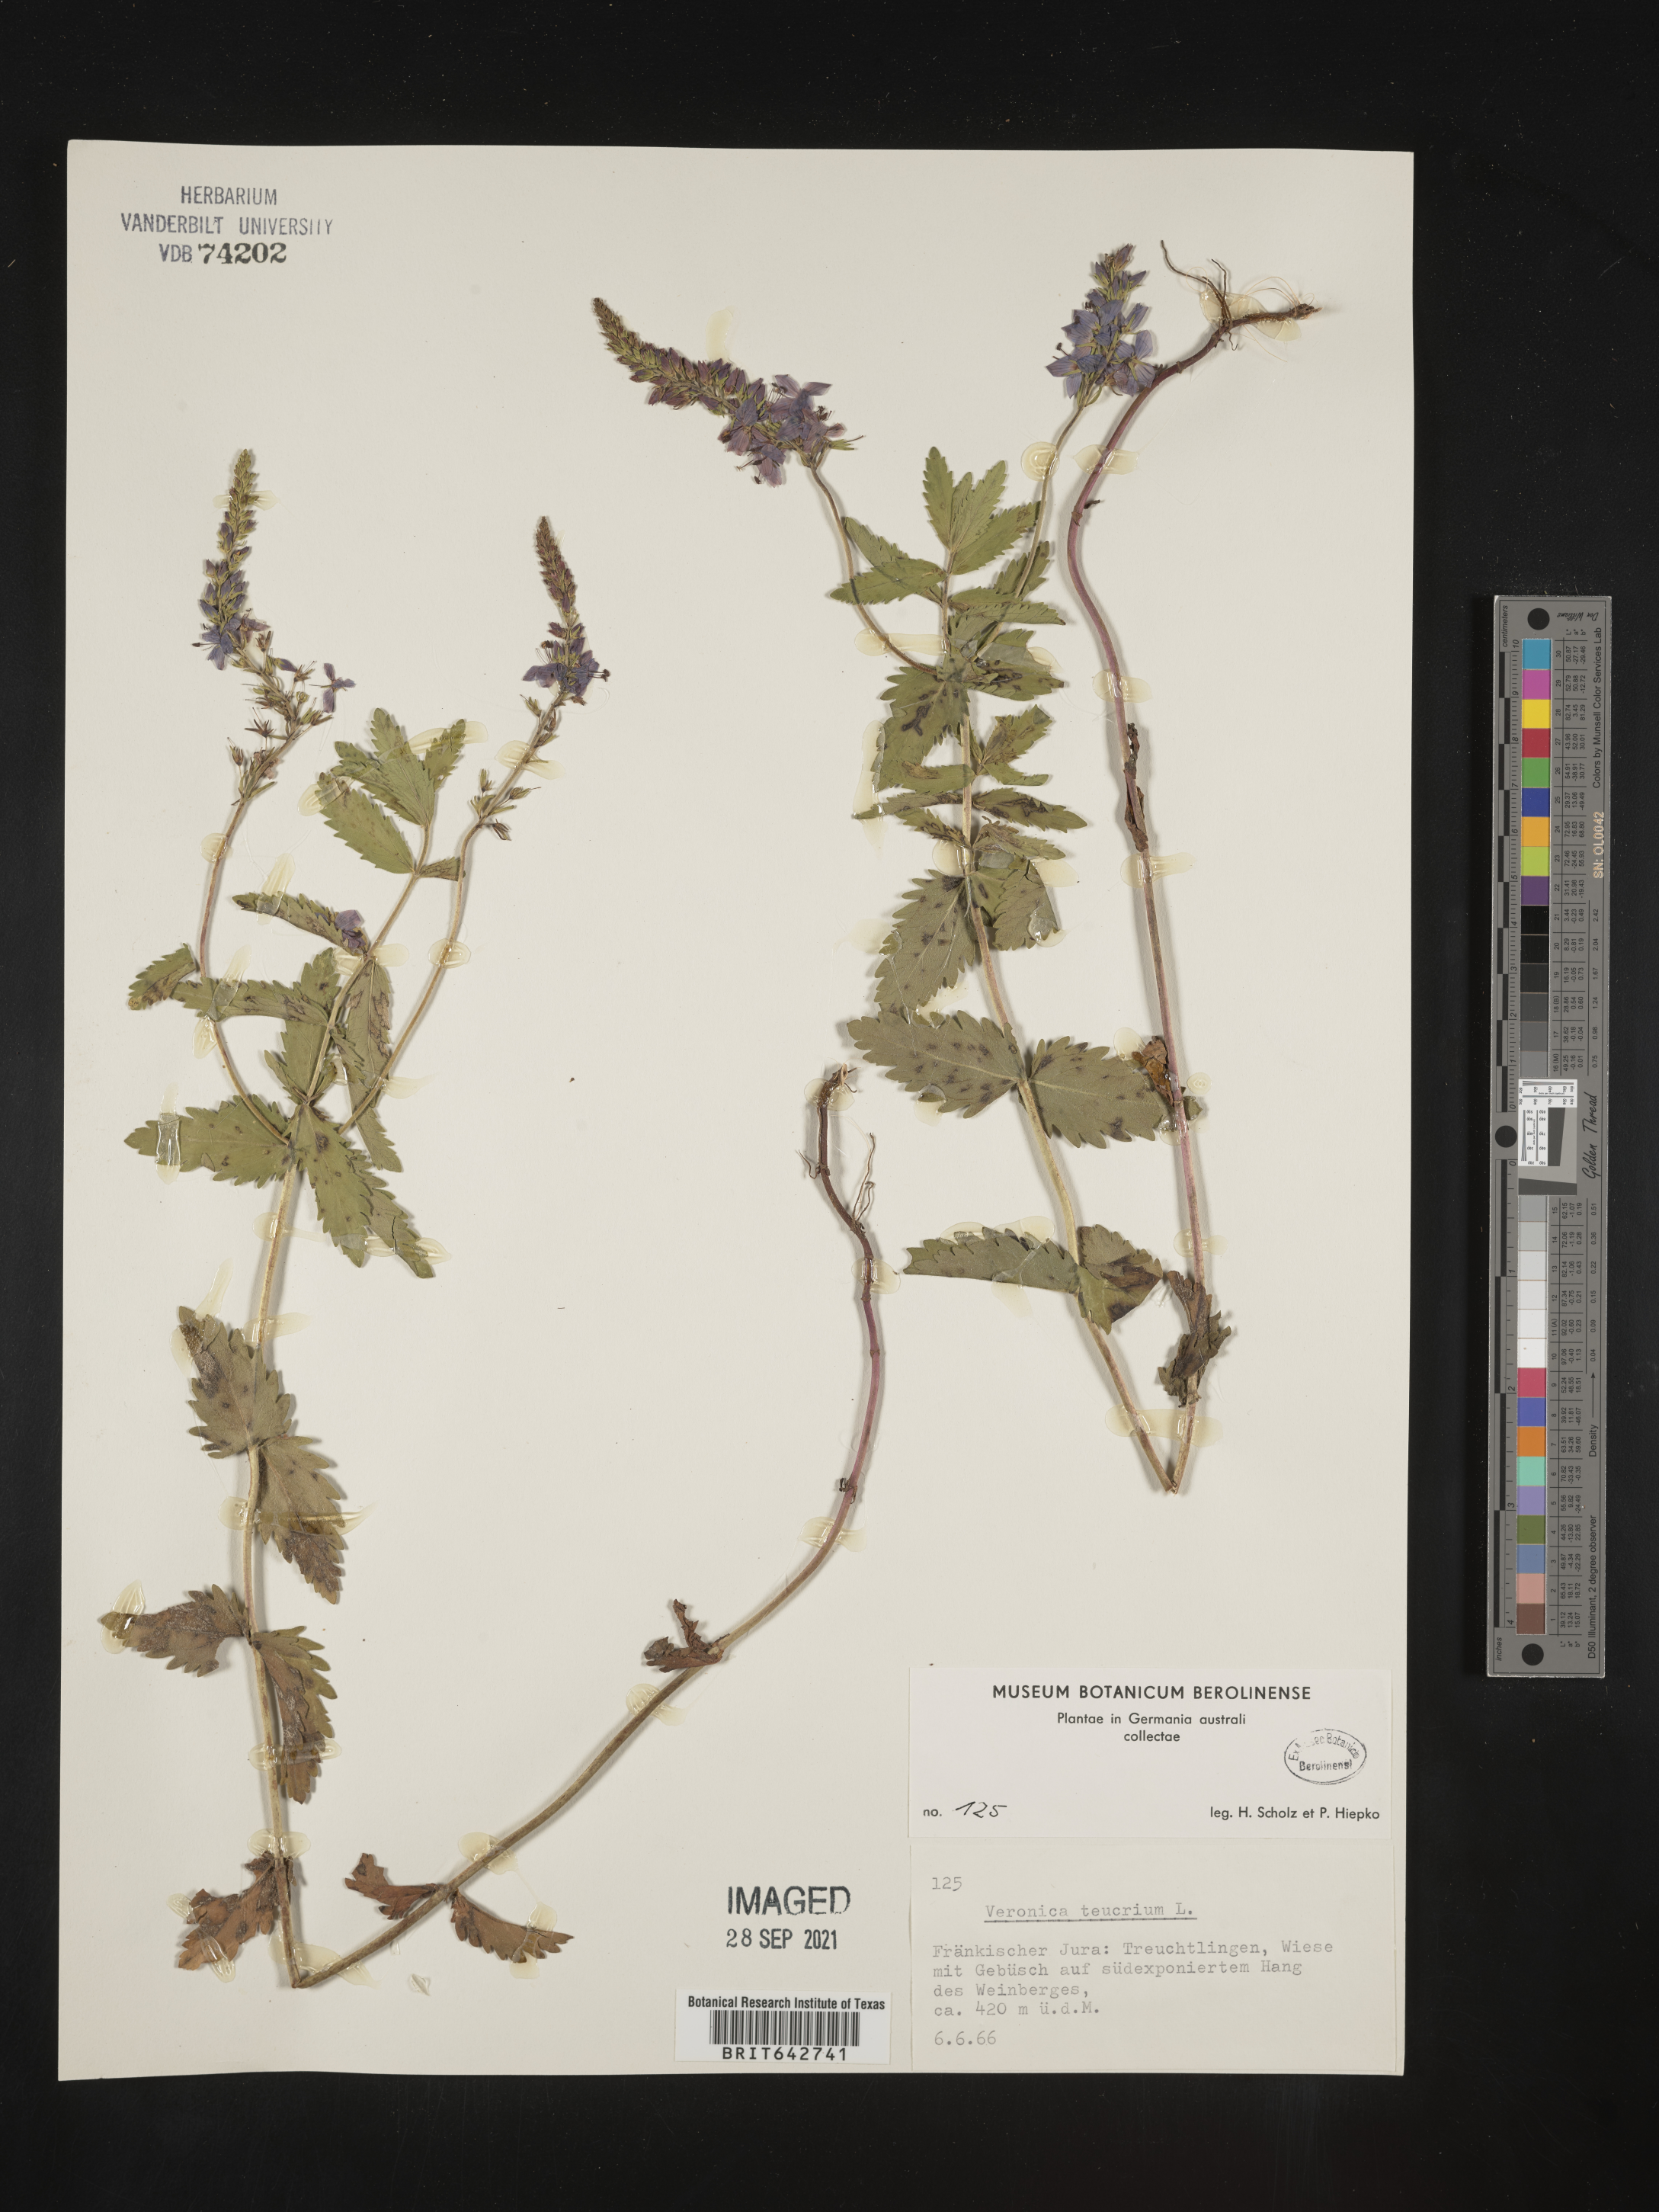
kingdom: Plantae
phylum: Tracheophyta
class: Magnoliopsida
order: Lamiales
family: Plantaginaceae
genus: Veronica
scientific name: Veronica
